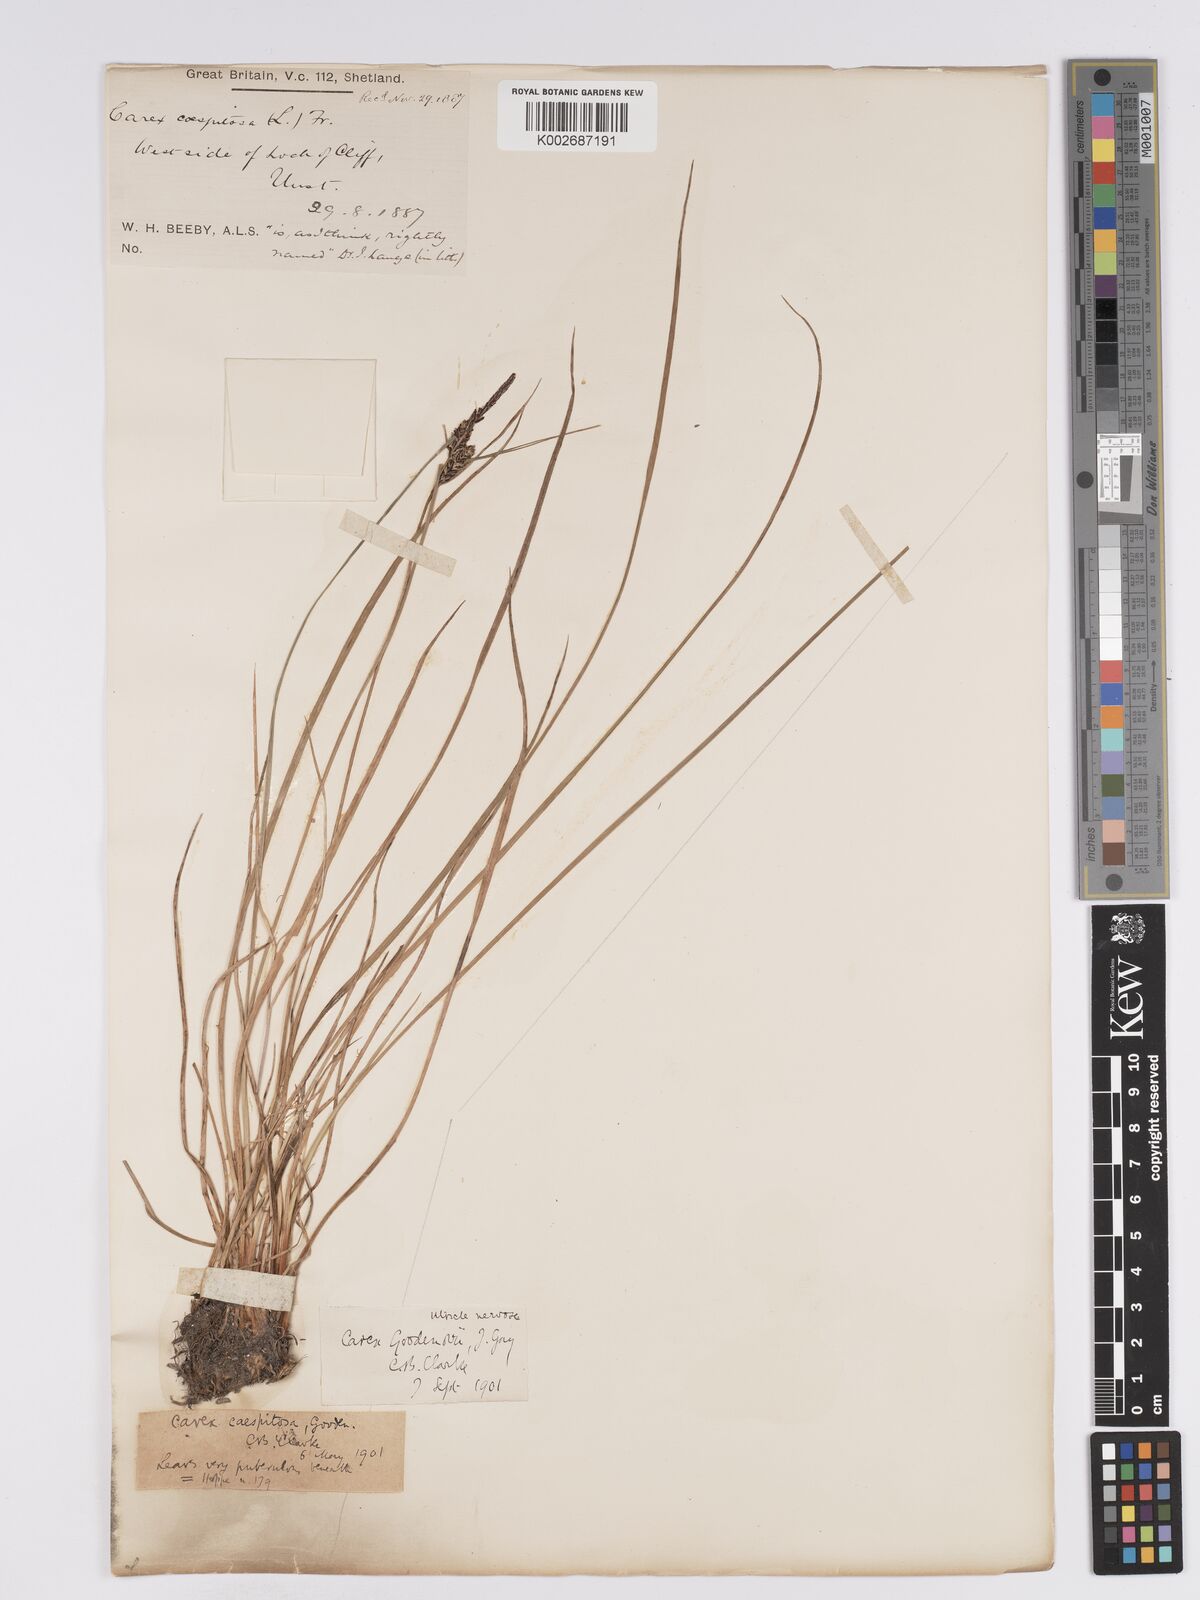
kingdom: Plantae
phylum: Tracheophyta
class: Liliopsida
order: Poales
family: Cyperaceae
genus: Carex
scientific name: Carex nigra
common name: Common sedge
